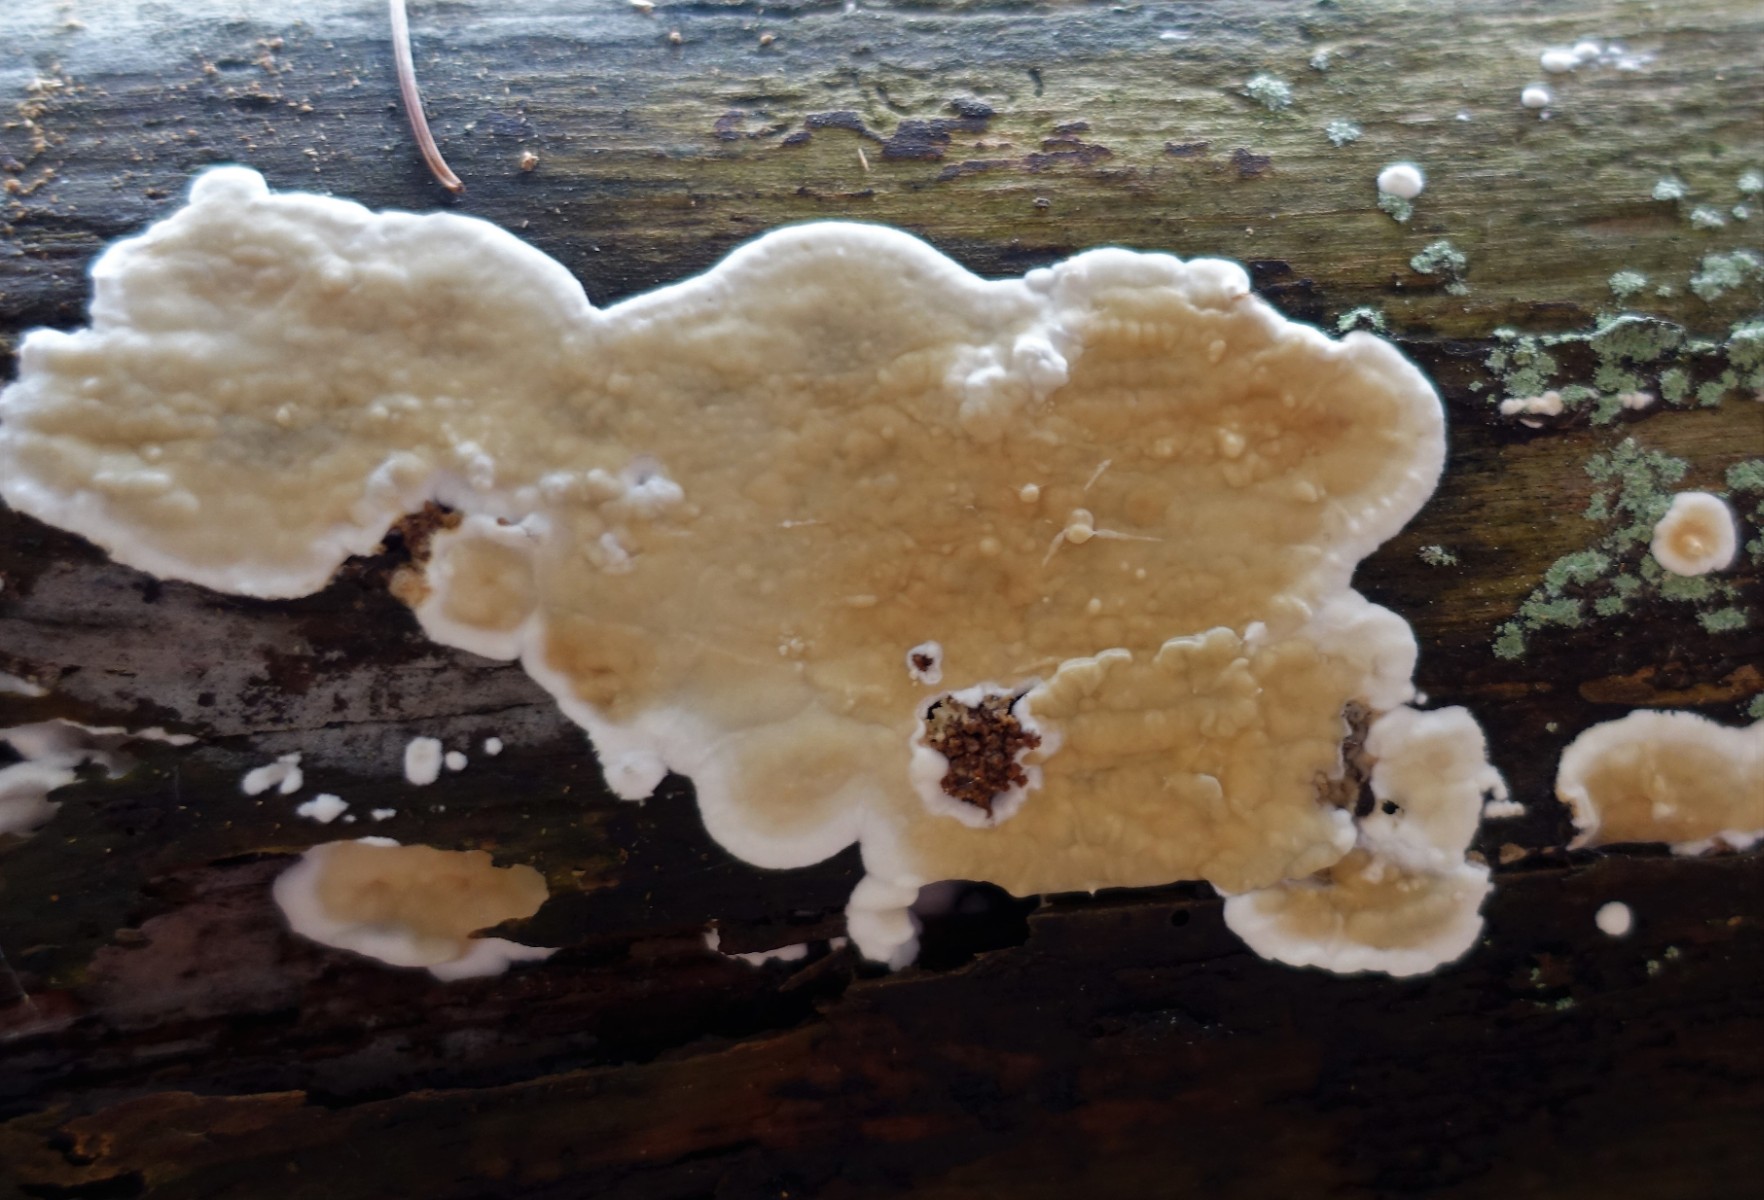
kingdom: Fungi
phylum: Basidiomycota
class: Agaricomycetes
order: Agaricales
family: Physalacriaceae
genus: Cylindrobasidium
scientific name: Cylindrobasidium evolvens
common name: sprækkehinde
